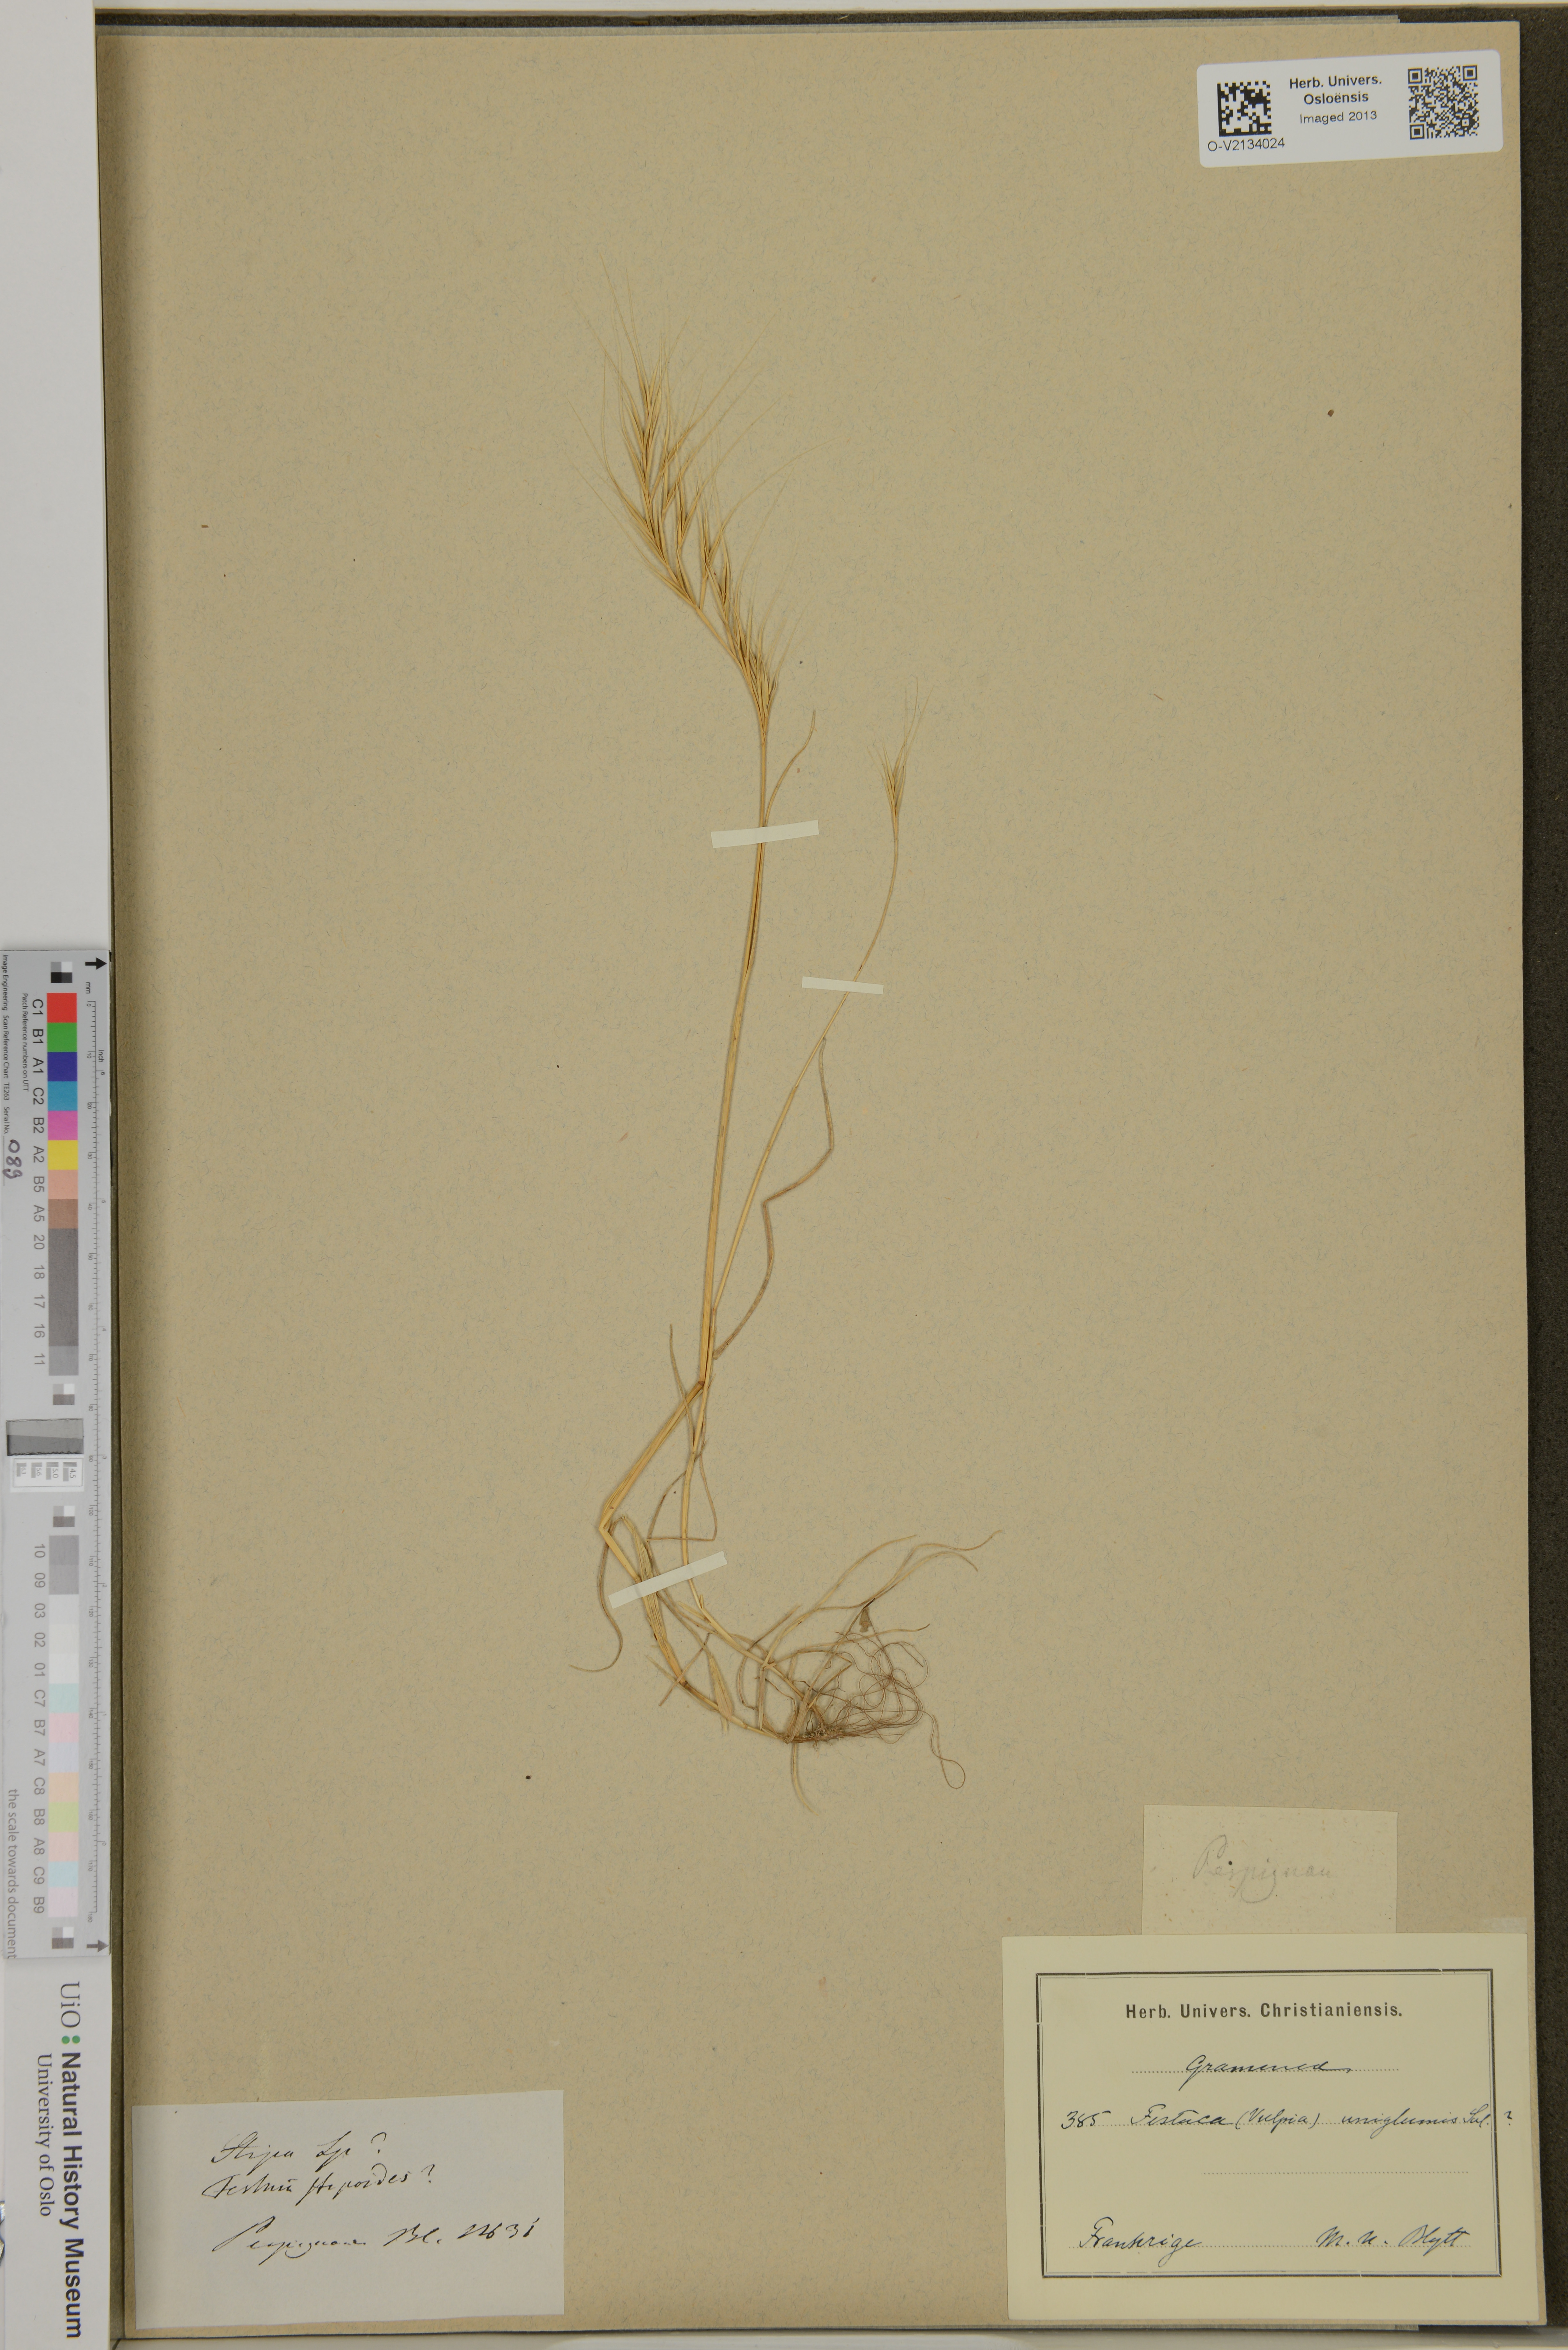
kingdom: Plantae
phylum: Tracheophyta
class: Liliopsida
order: Poales
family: Poaceae
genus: Festuca
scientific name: Festuca bromoides
